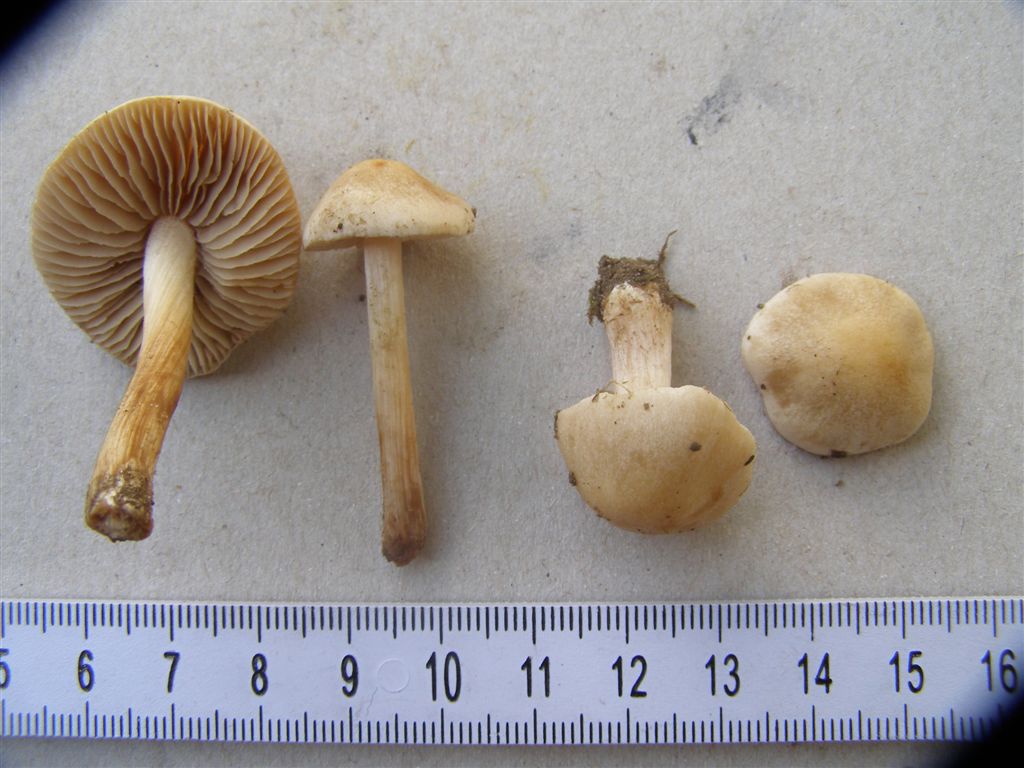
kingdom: Fungi
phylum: Basidiomycota
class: Agaricomycetes
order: Agaricales
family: Hymenogastraceae
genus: Hebeloma
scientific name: Hebeloma sacchariolens
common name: sødtduftende tåreblad
